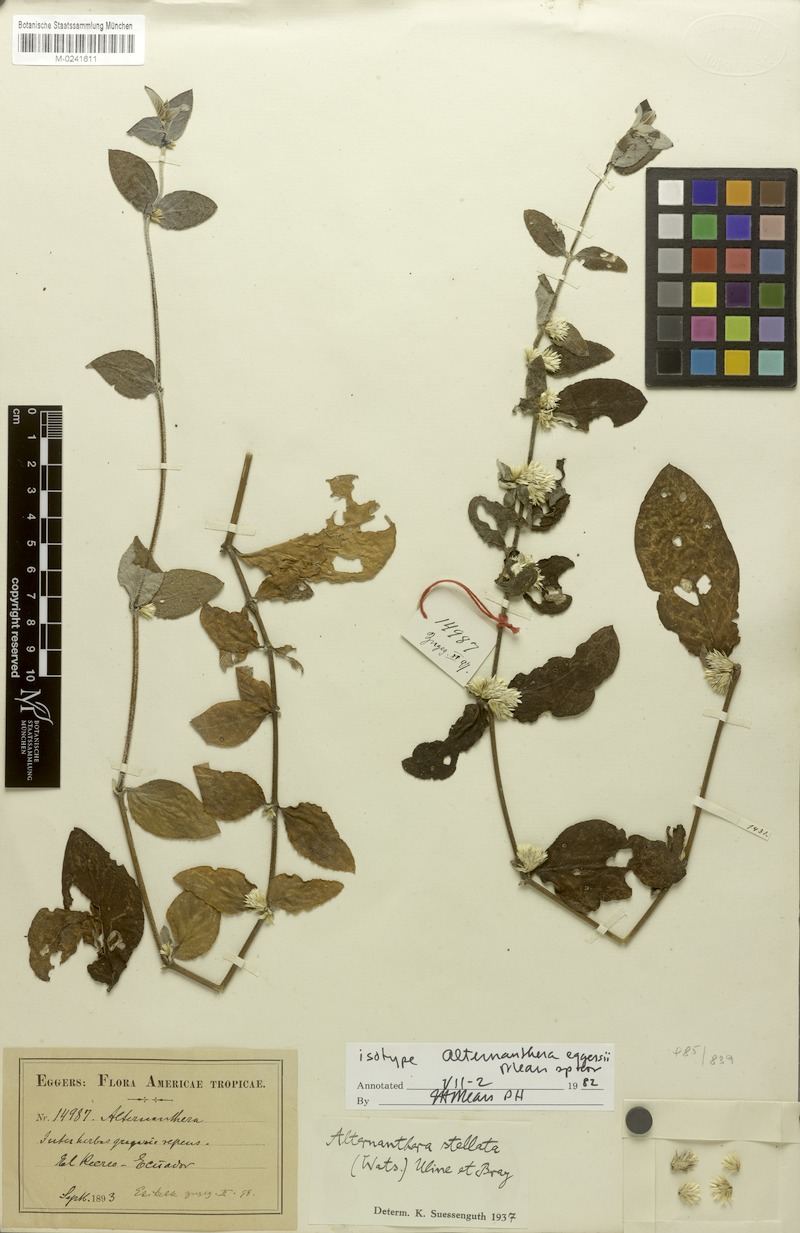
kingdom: Plantae
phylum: Tracheophyta
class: Magnoliopsida
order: Caryophyllales
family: Amaranthaceae
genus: Alternanthera
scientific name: Alternanthera stellata
